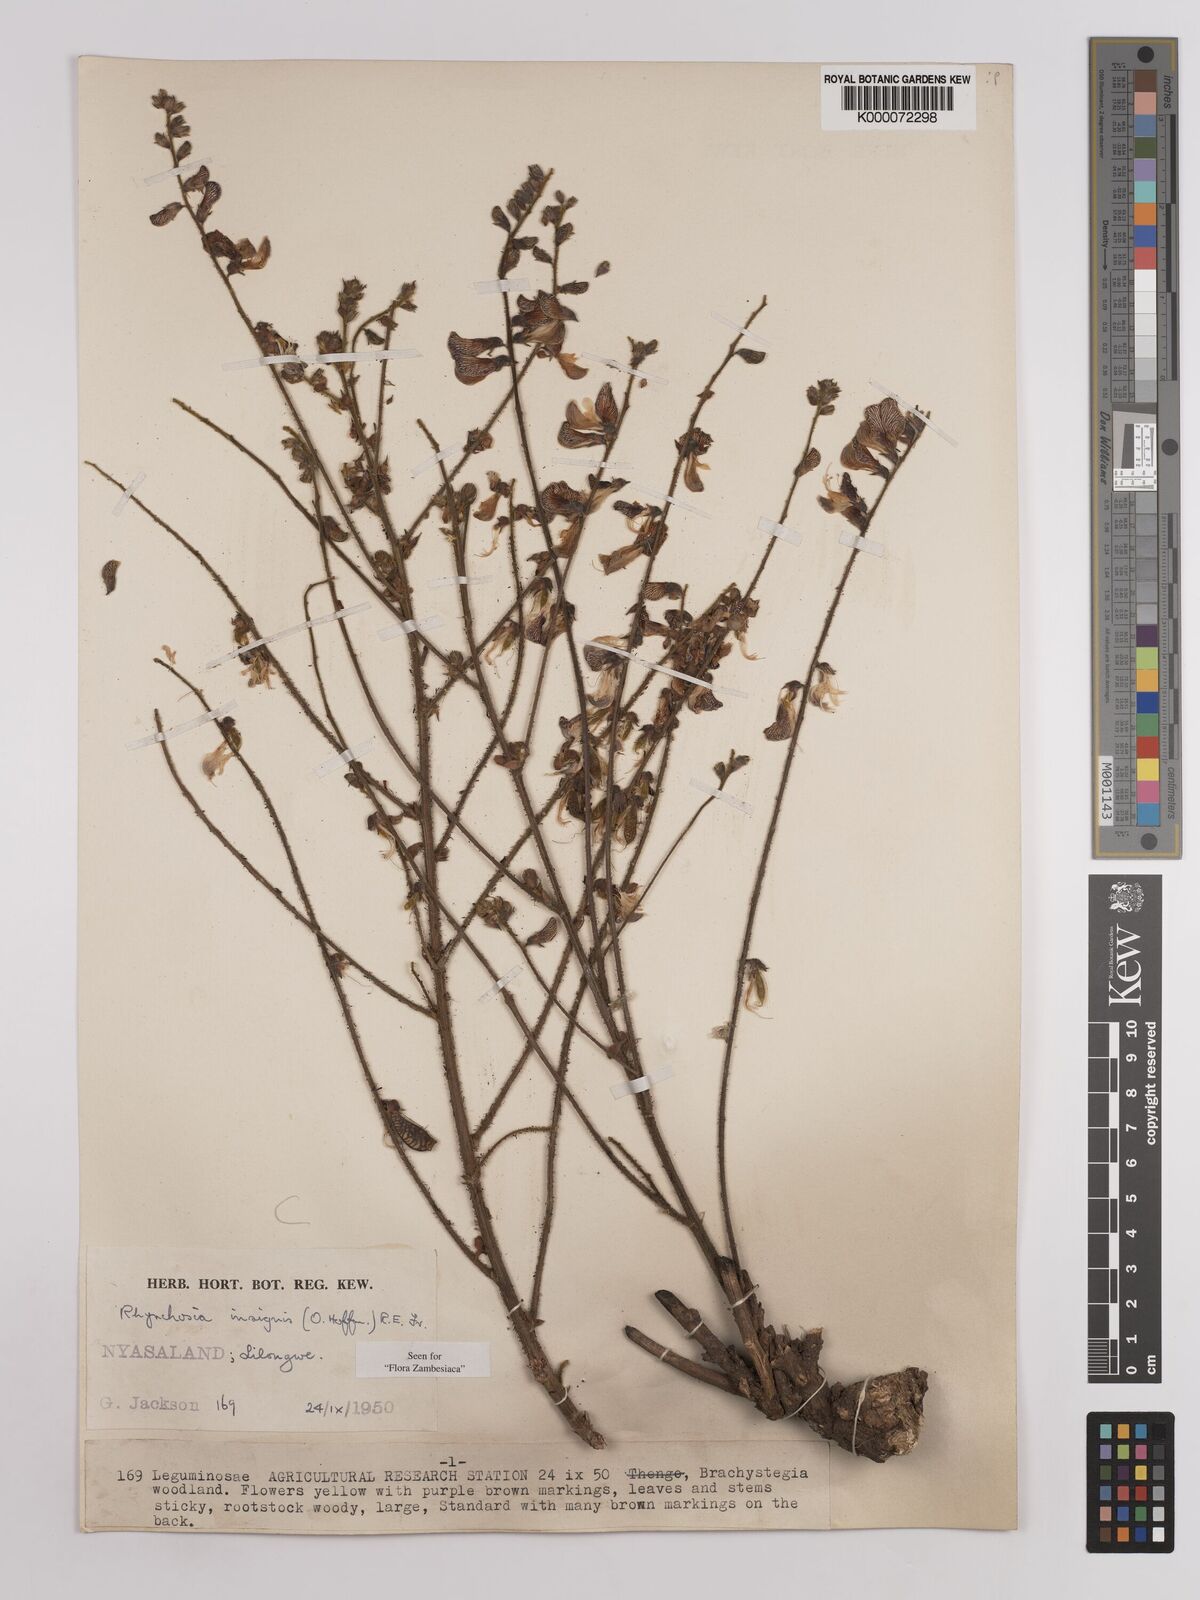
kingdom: Plantae
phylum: Tracheophyta
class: Magnoliopsida
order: Fabales
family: Fabaceae
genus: Rhynchosia
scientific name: Rhynchosia insignis
